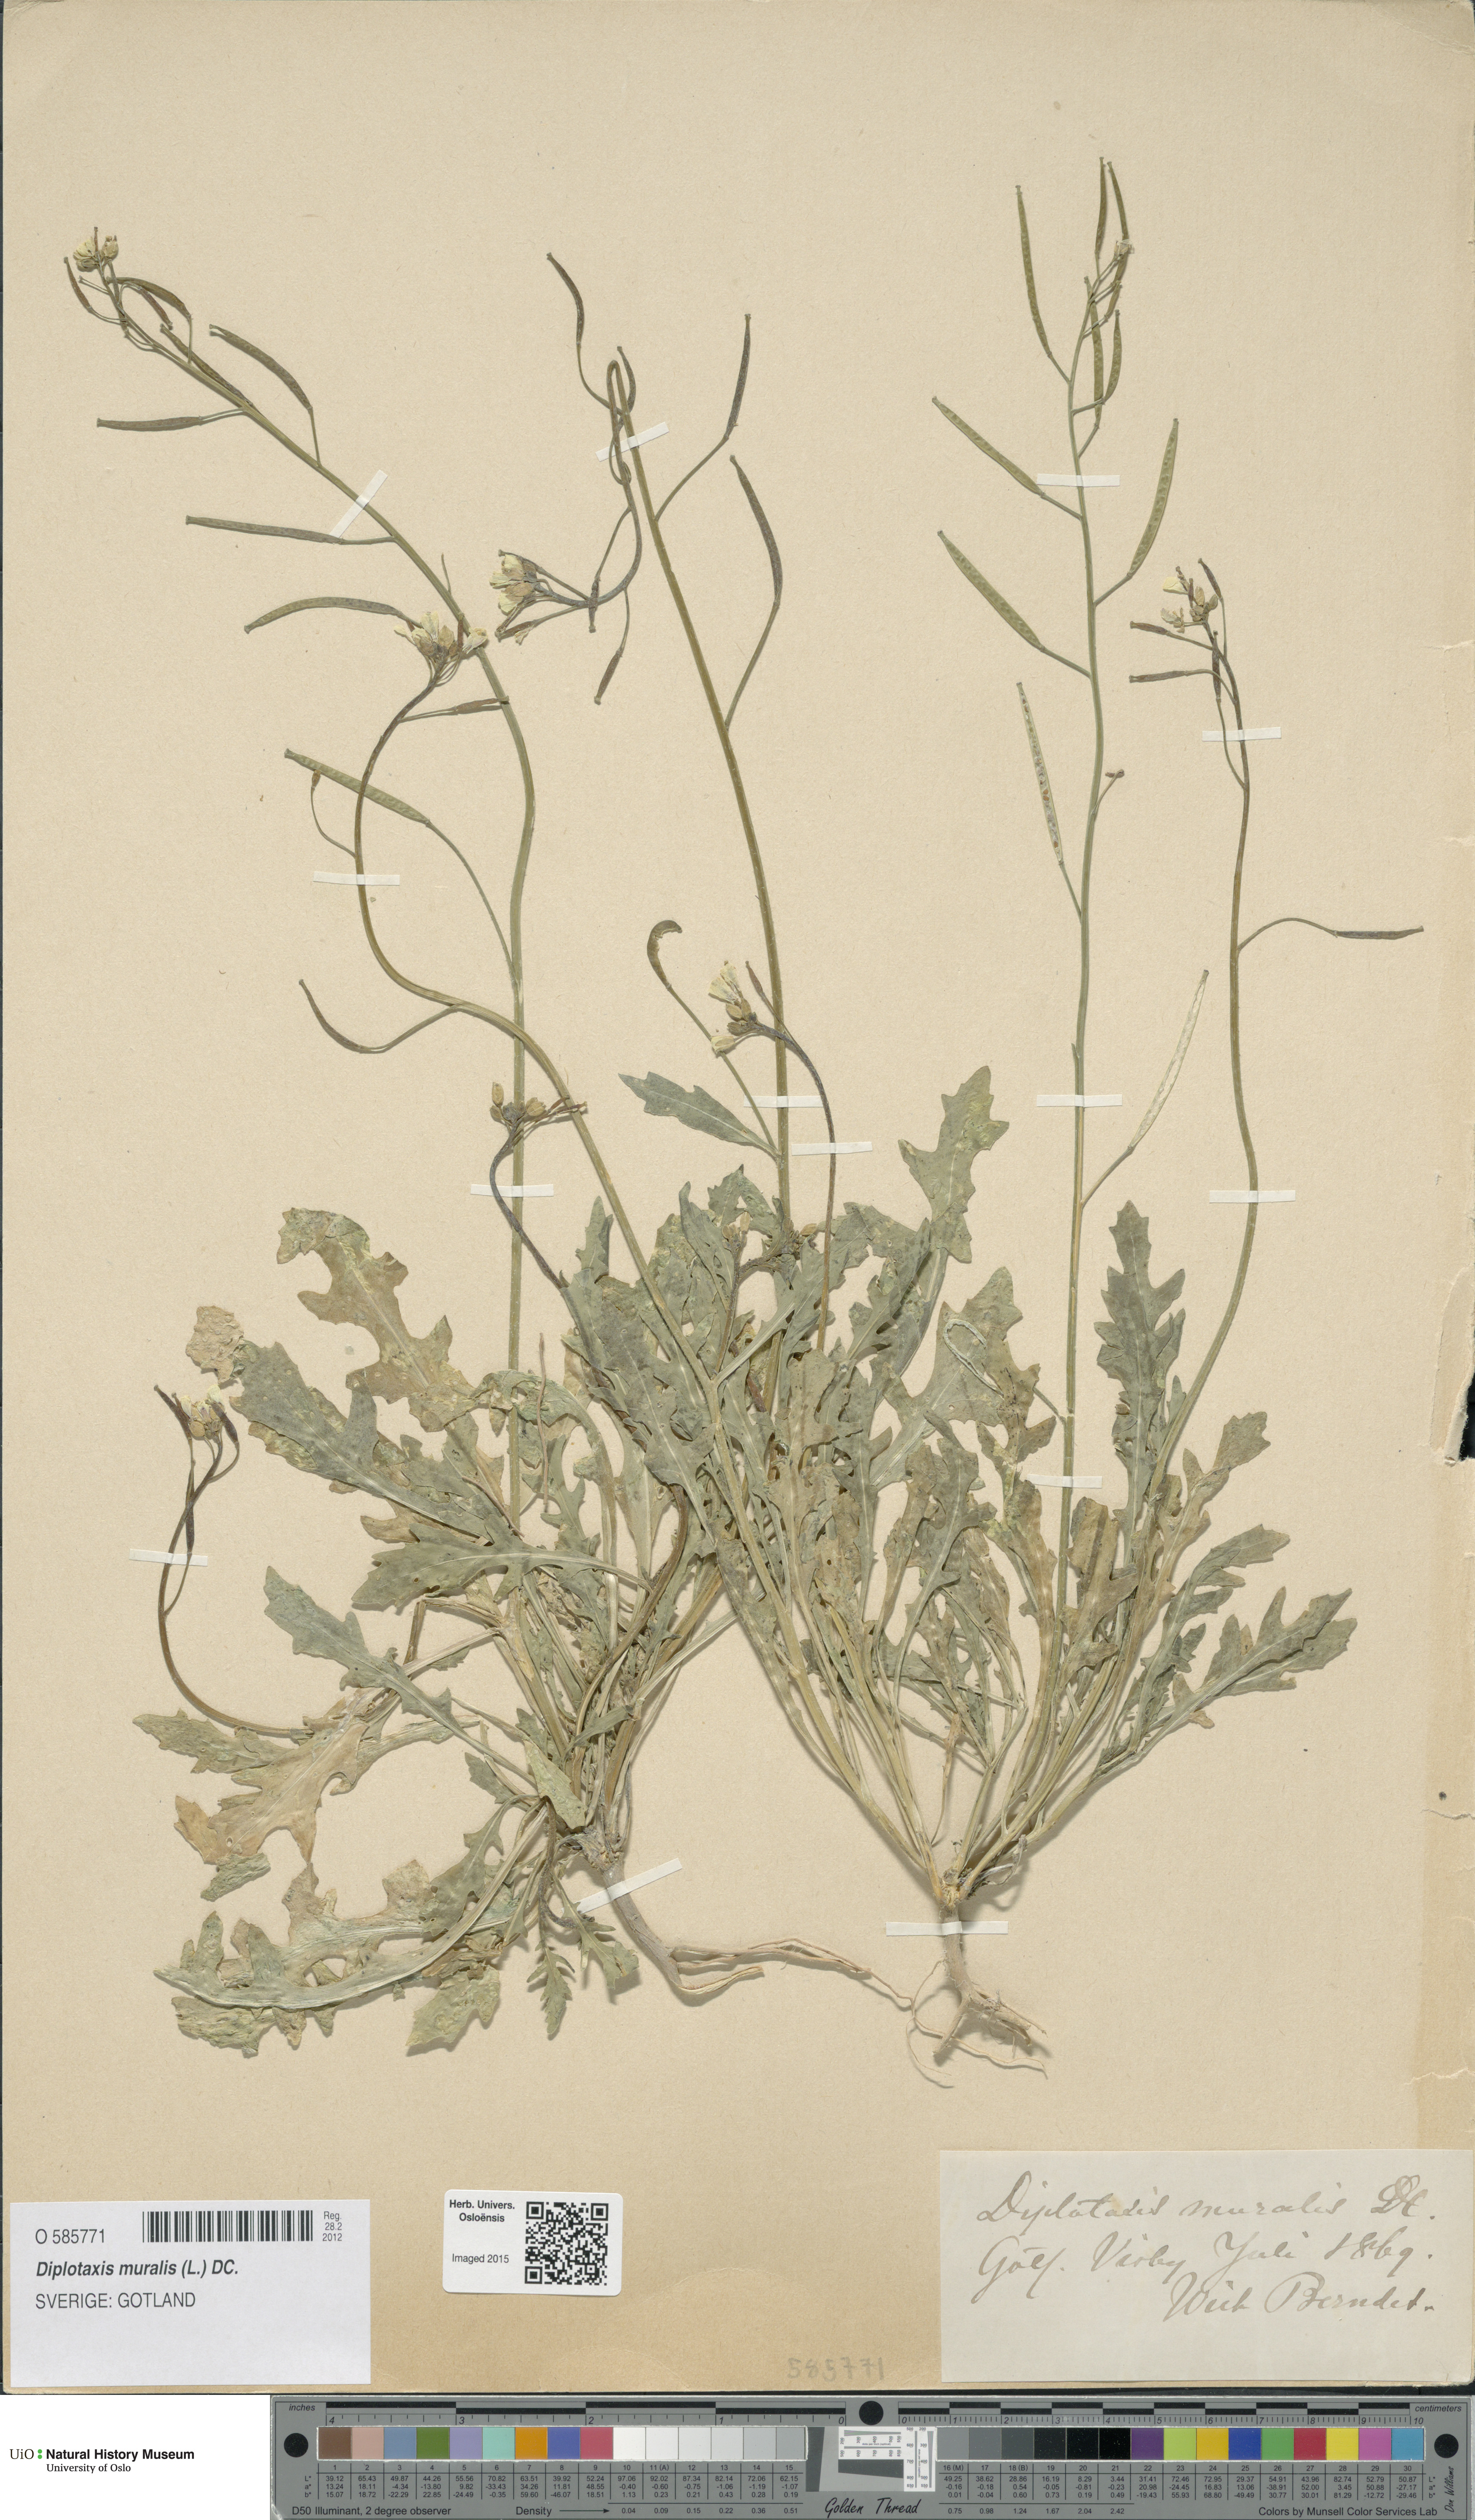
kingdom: Plantae
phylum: Tracheophyta
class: Magnoliopsida
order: Brassicales
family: Brassicaceae
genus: Diplotaxis
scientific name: Diplotaxis muralis
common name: Annual wall-rocket
